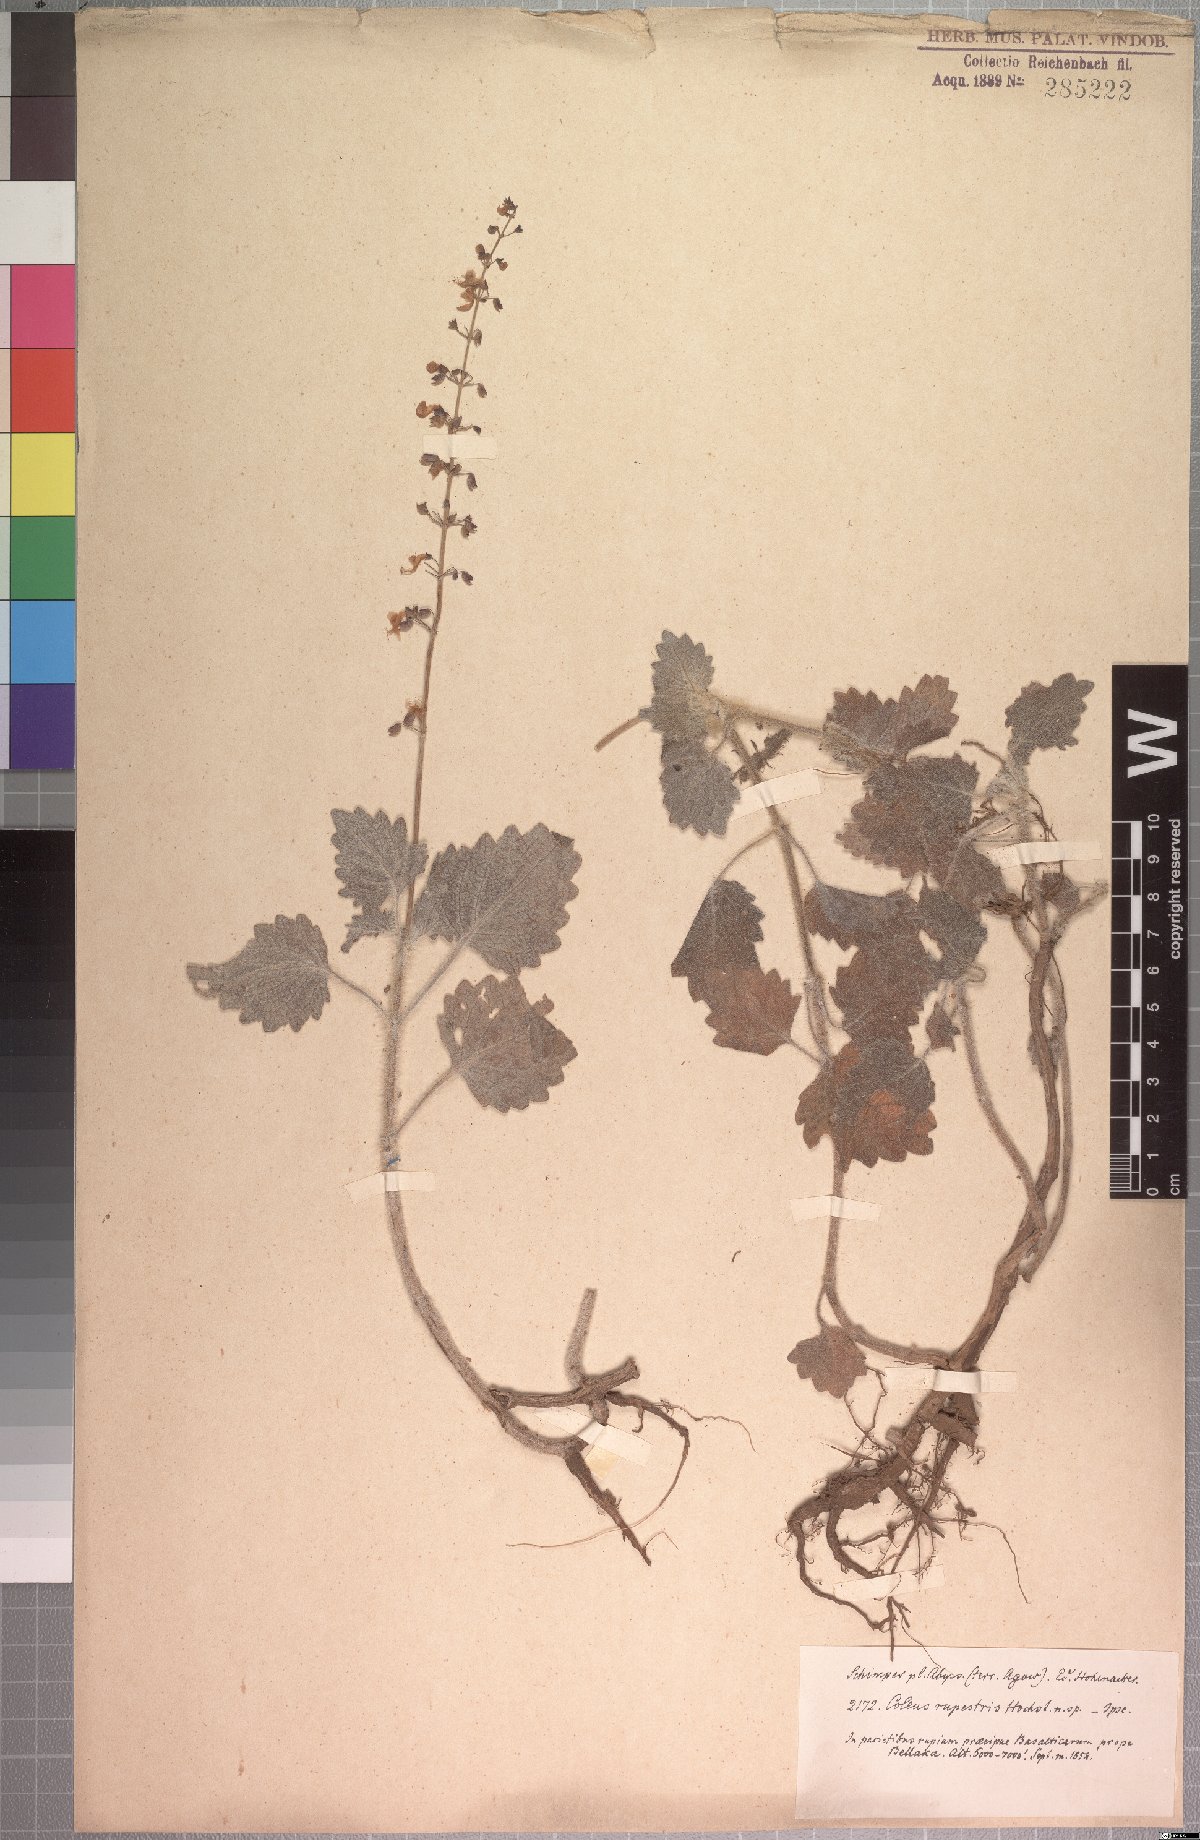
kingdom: Plantae
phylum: Tracheophyta
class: Magnoliopsida
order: Lamiales
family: Lamiaceae
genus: Coleus
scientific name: Coleus hadiensis
